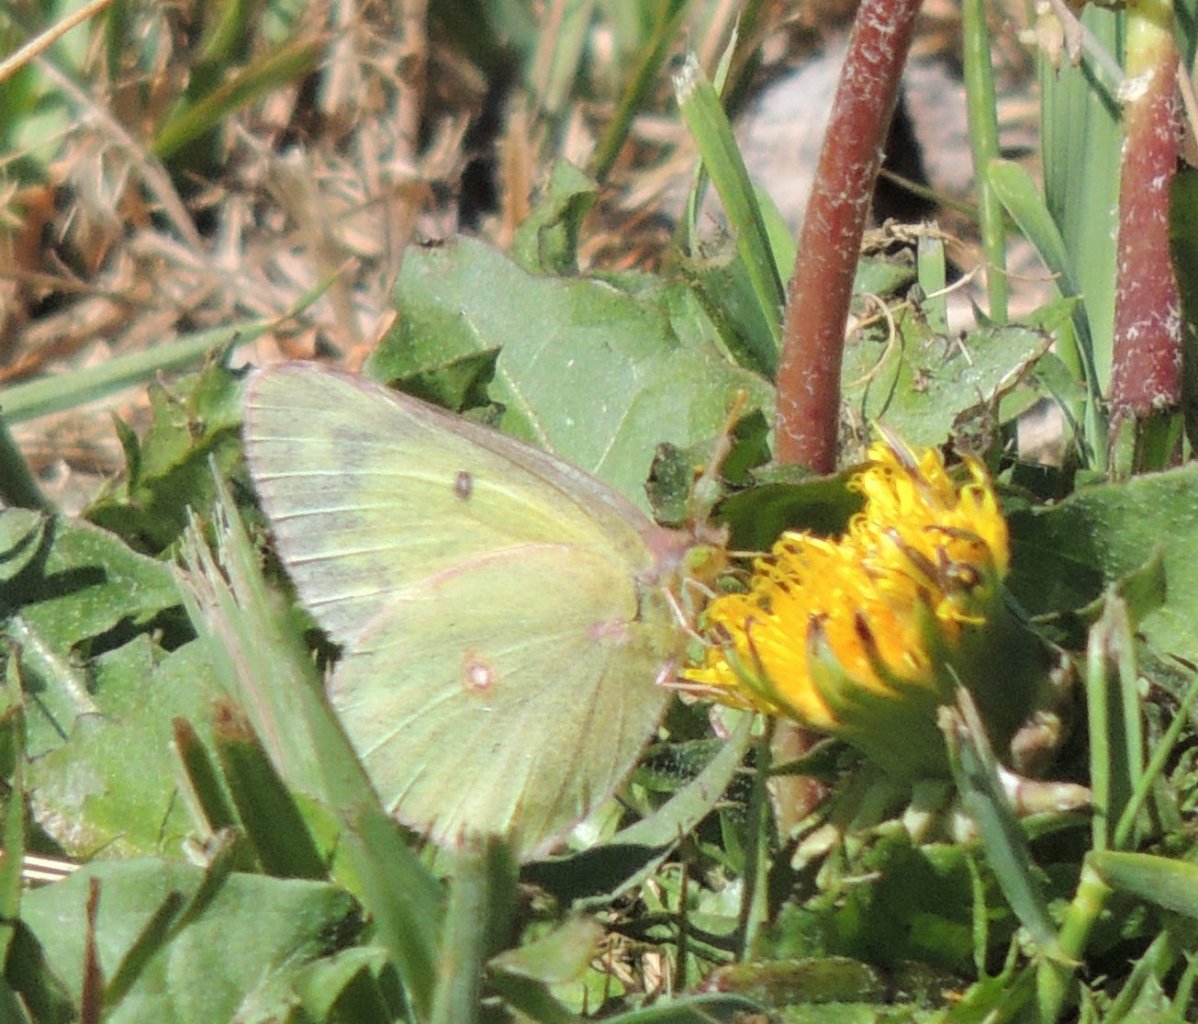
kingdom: Animalia
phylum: Arthropoda
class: Insecta
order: Lepidoptera
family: Pieridae
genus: Colias
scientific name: Colias eurytheme
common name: Orange Sulphur
